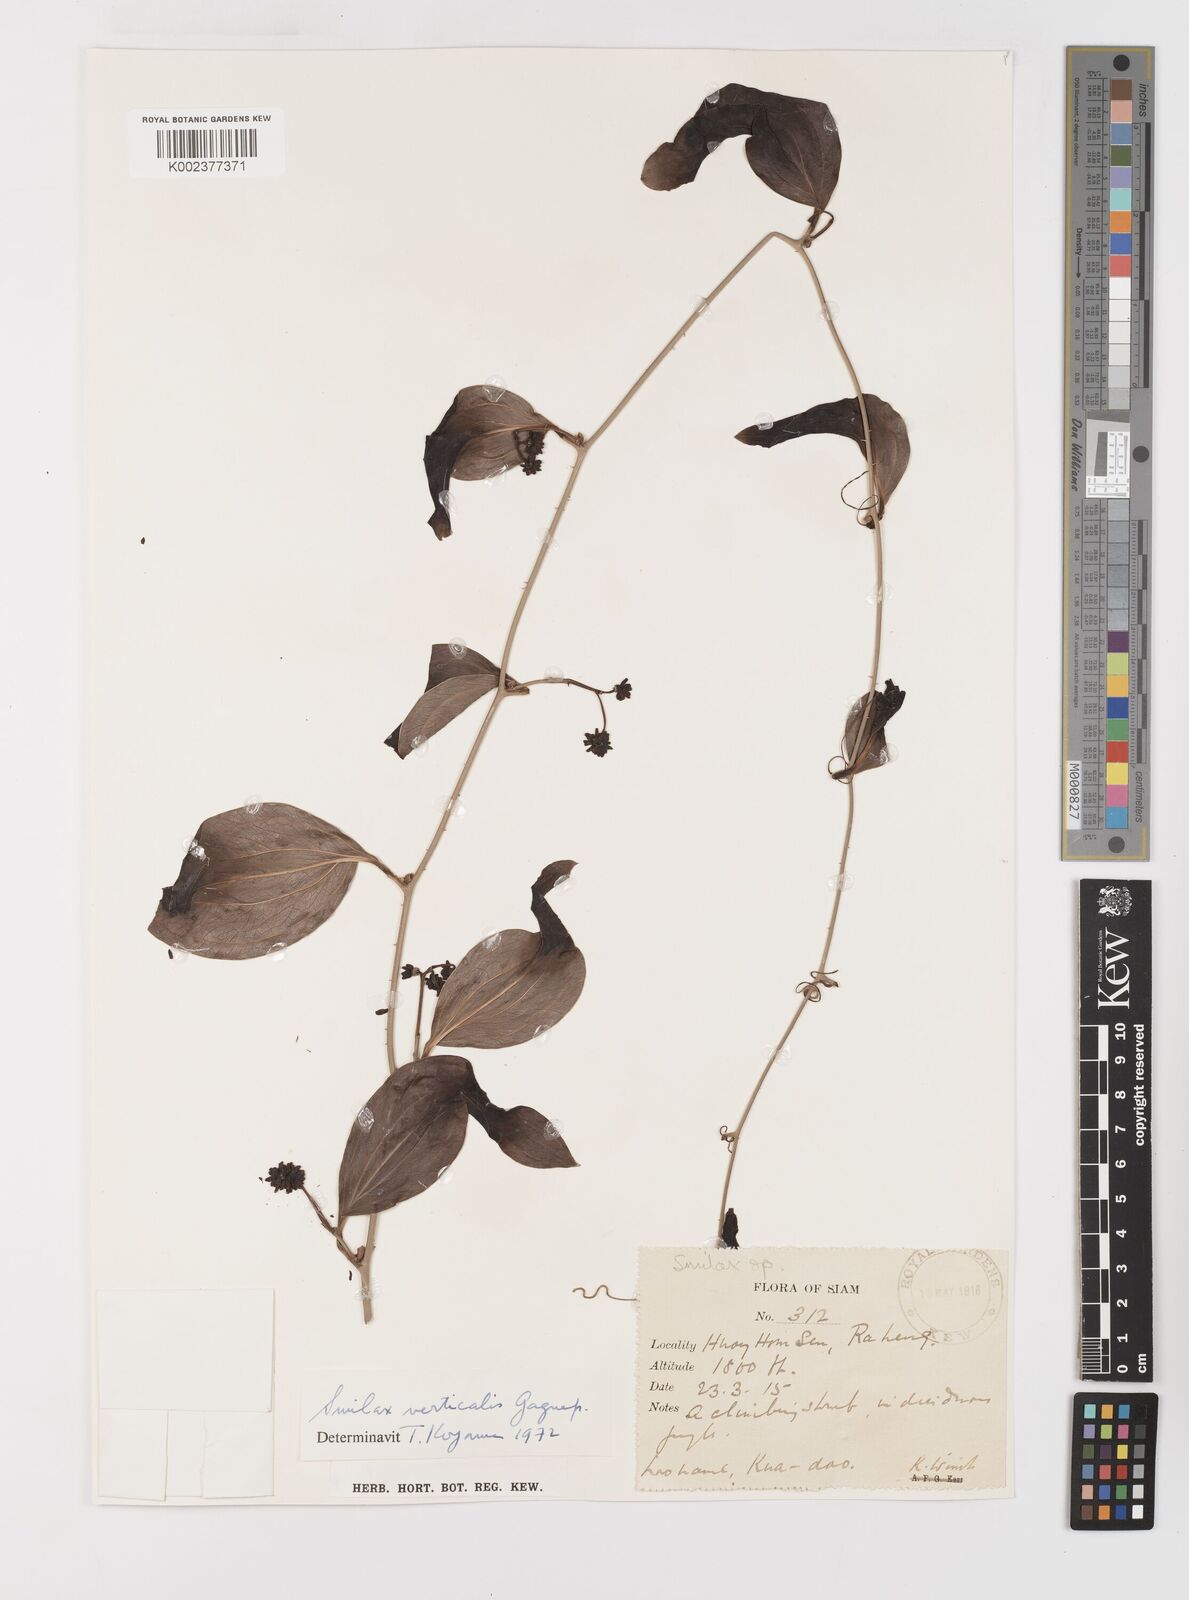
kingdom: Plantae
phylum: Tracheophyta
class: Liliopsida
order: Liliales
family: Smilacaceae
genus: Smilax
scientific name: Smilax verticalis
